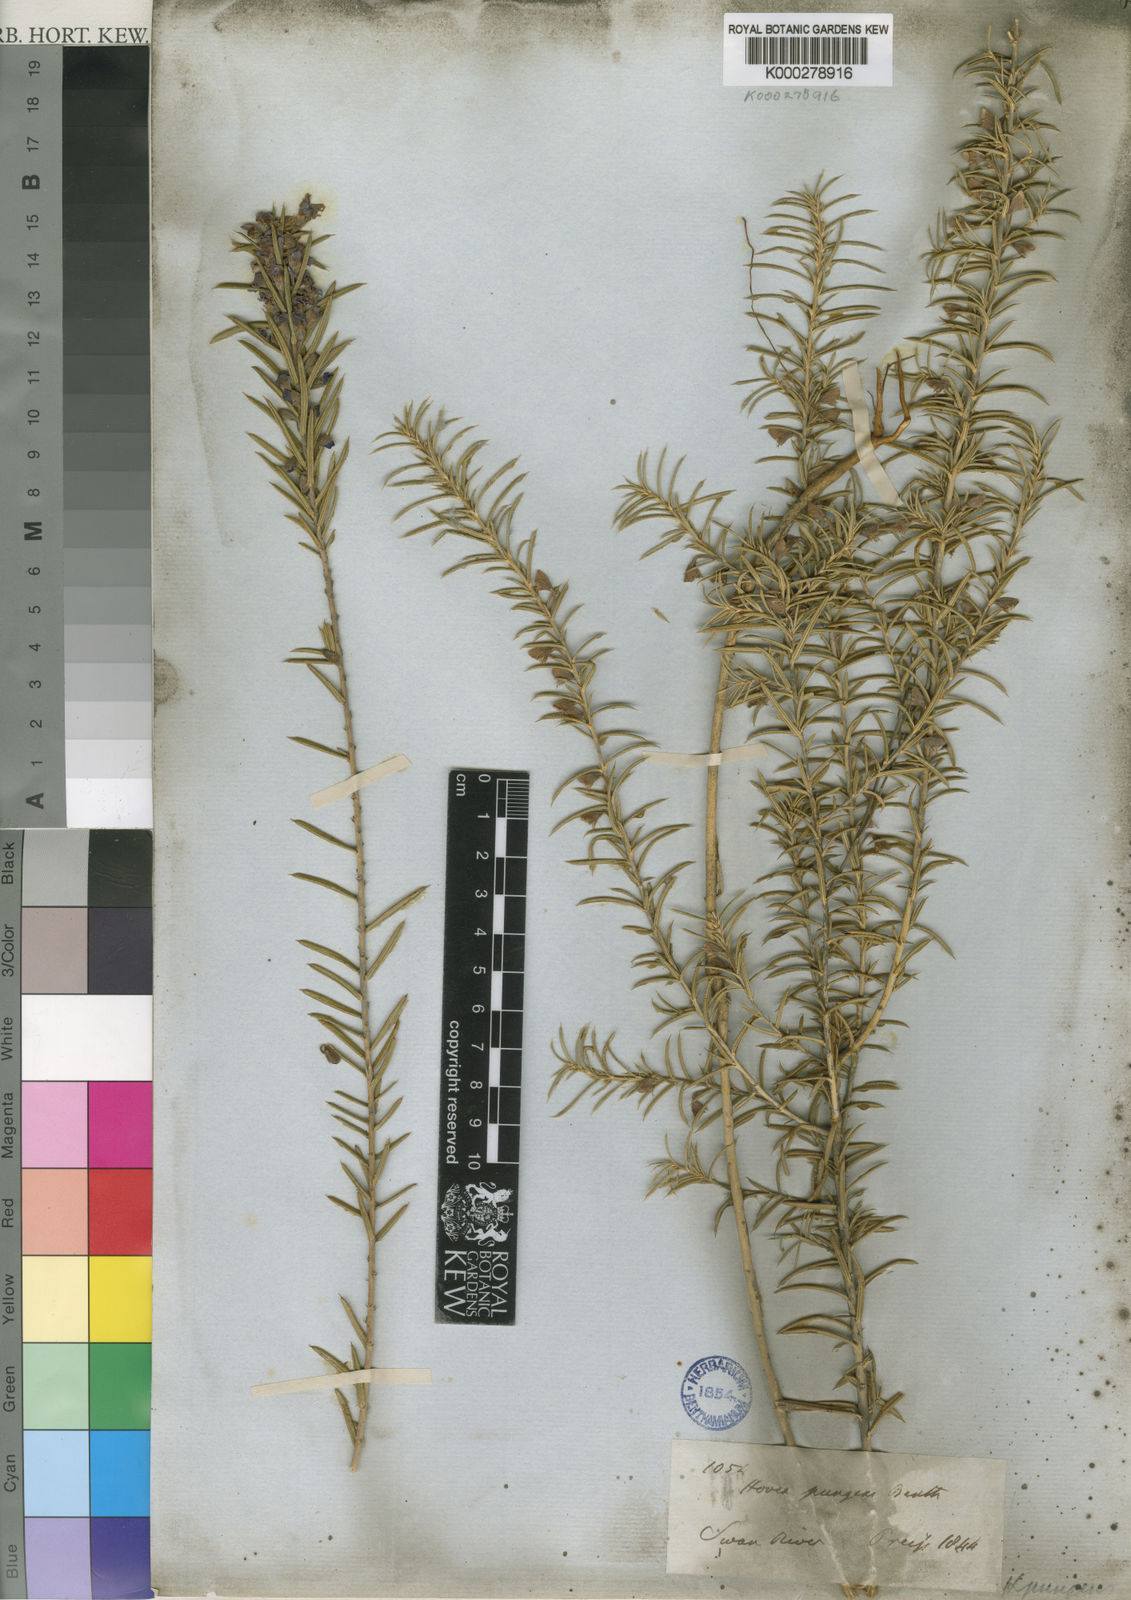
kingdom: Plantae
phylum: Tracheophyta
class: Magnoliopsida
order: Fabales
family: Fabaceae
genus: Hovea
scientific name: Hovea pungens
